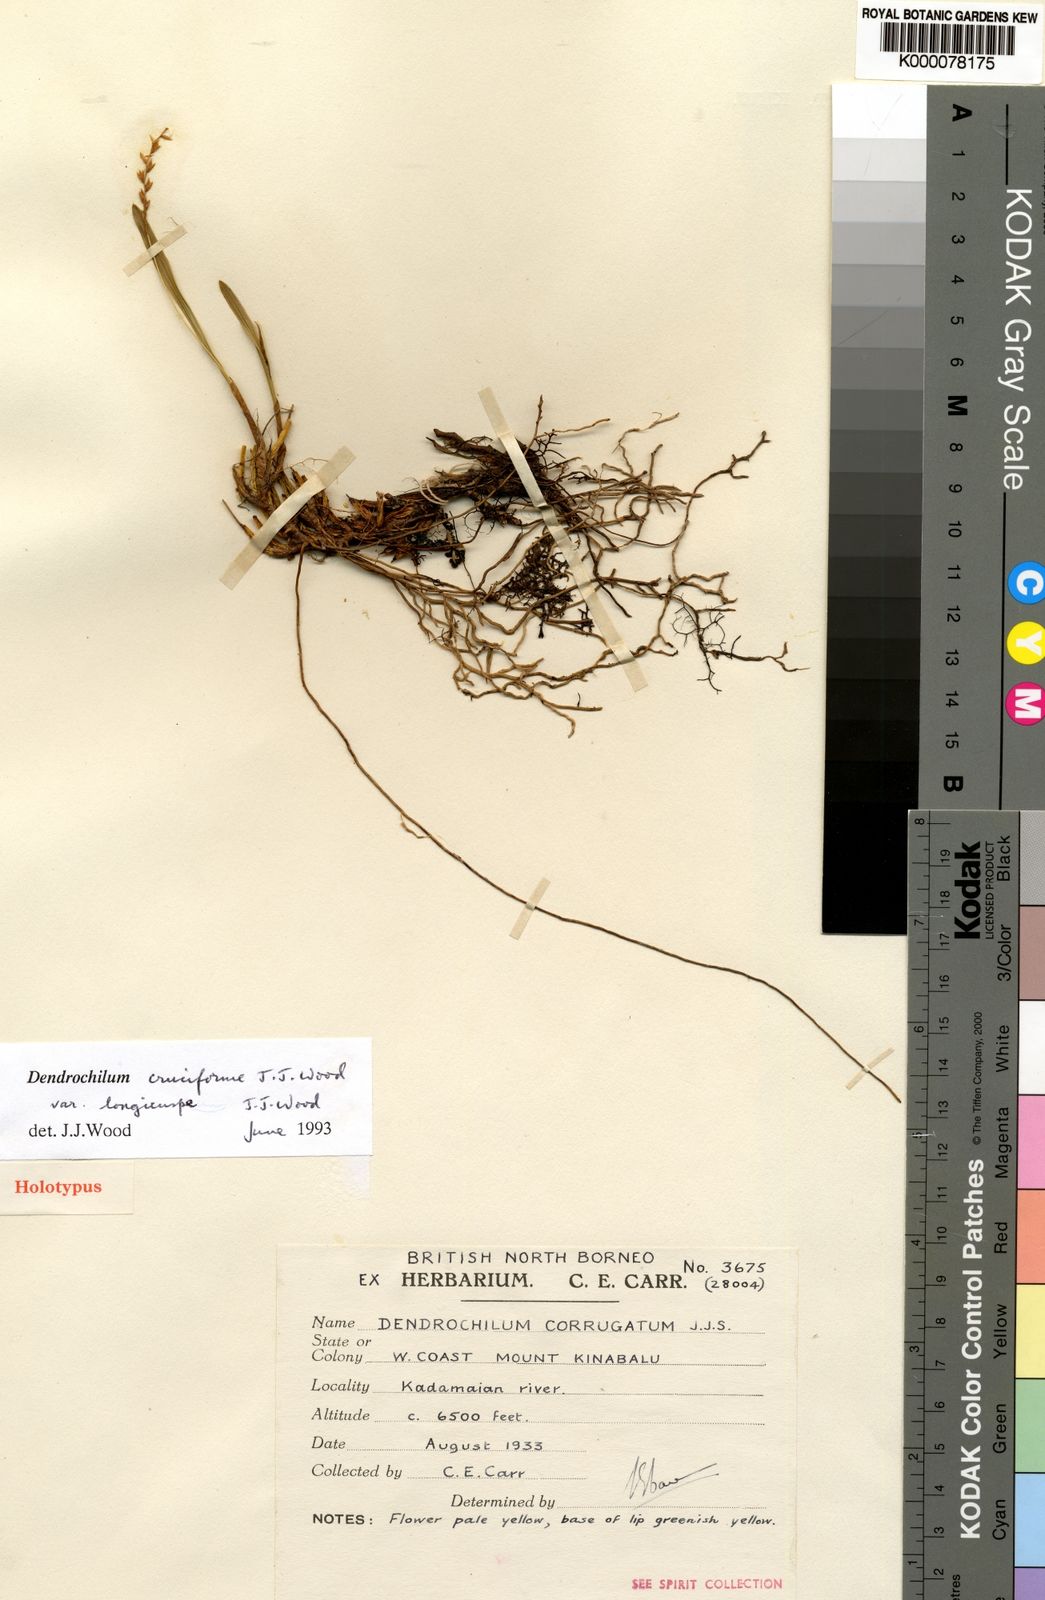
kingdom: Plantae
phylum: Tracheophyta
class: Liliopsida
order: Asparagales
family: Orchidaceae
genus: Coelogyne
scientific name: Coelogyne cruciformis
